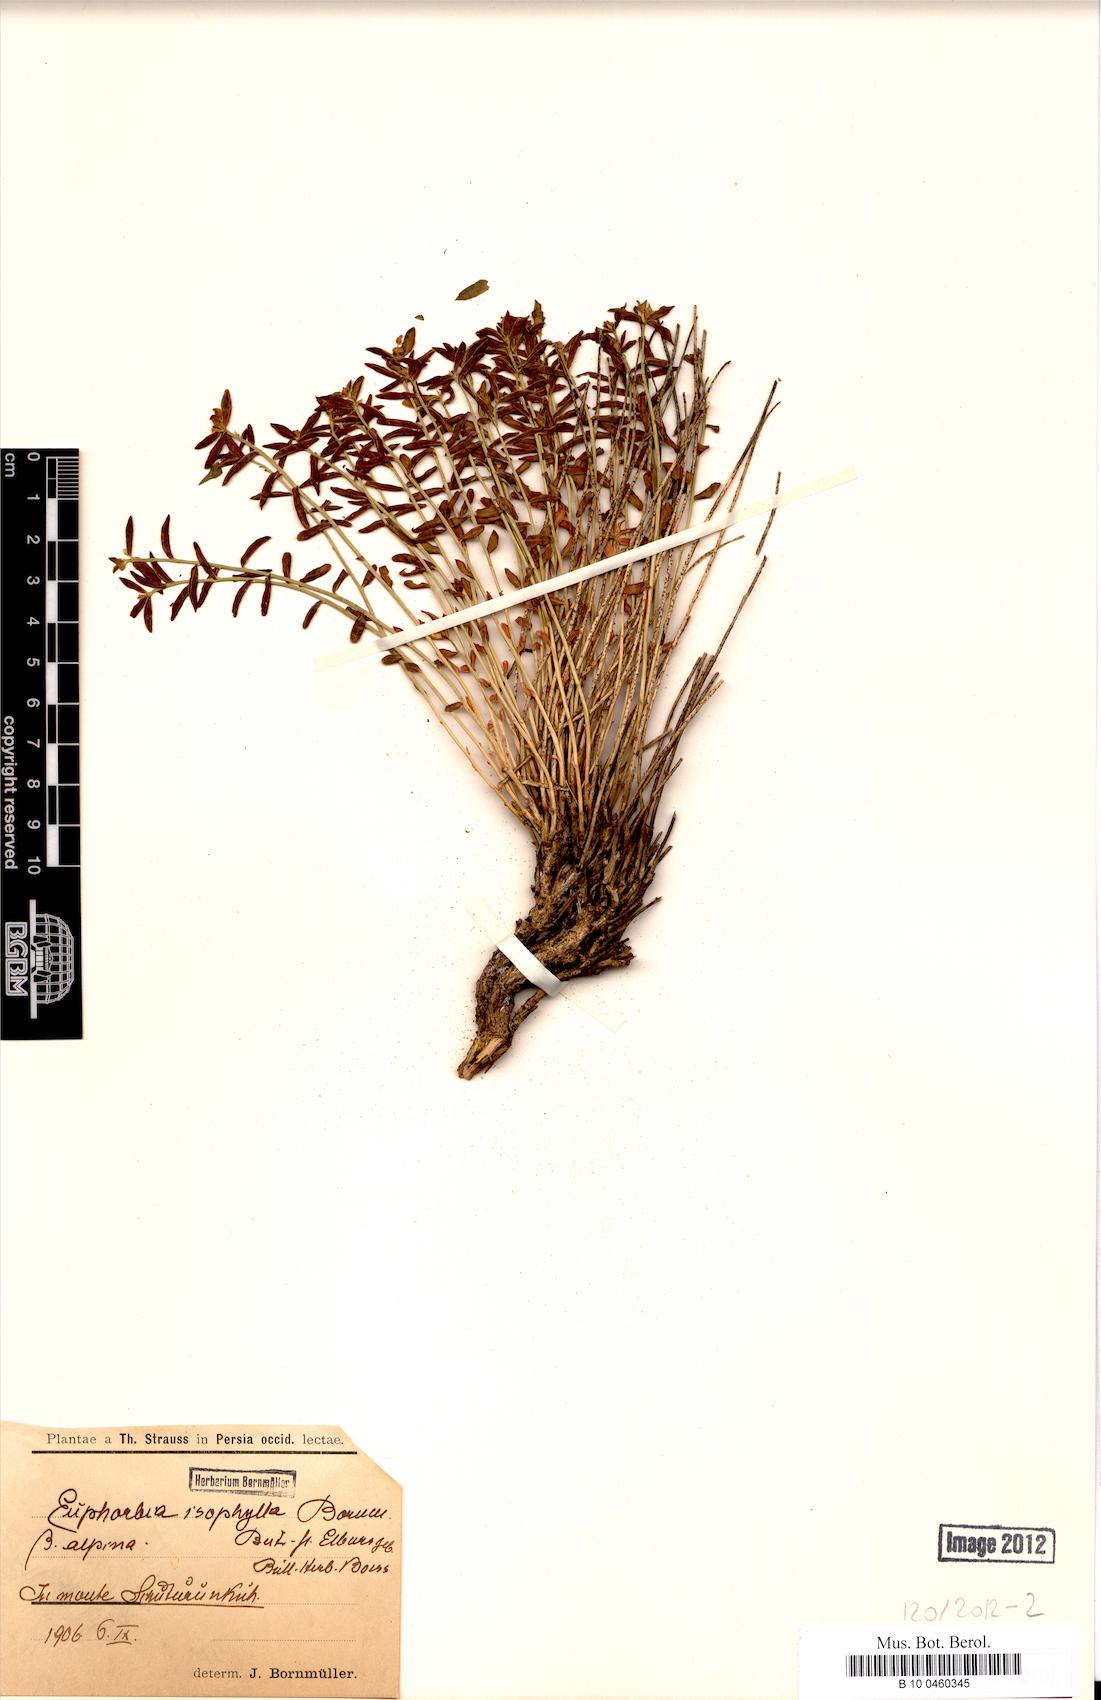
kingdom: Plantae
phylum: Tracheophyta
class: Magnoliopsida
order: Malpighiales
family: Euphorbiaceae
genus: Euphorbia
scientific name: Euphorbia microsciadia
